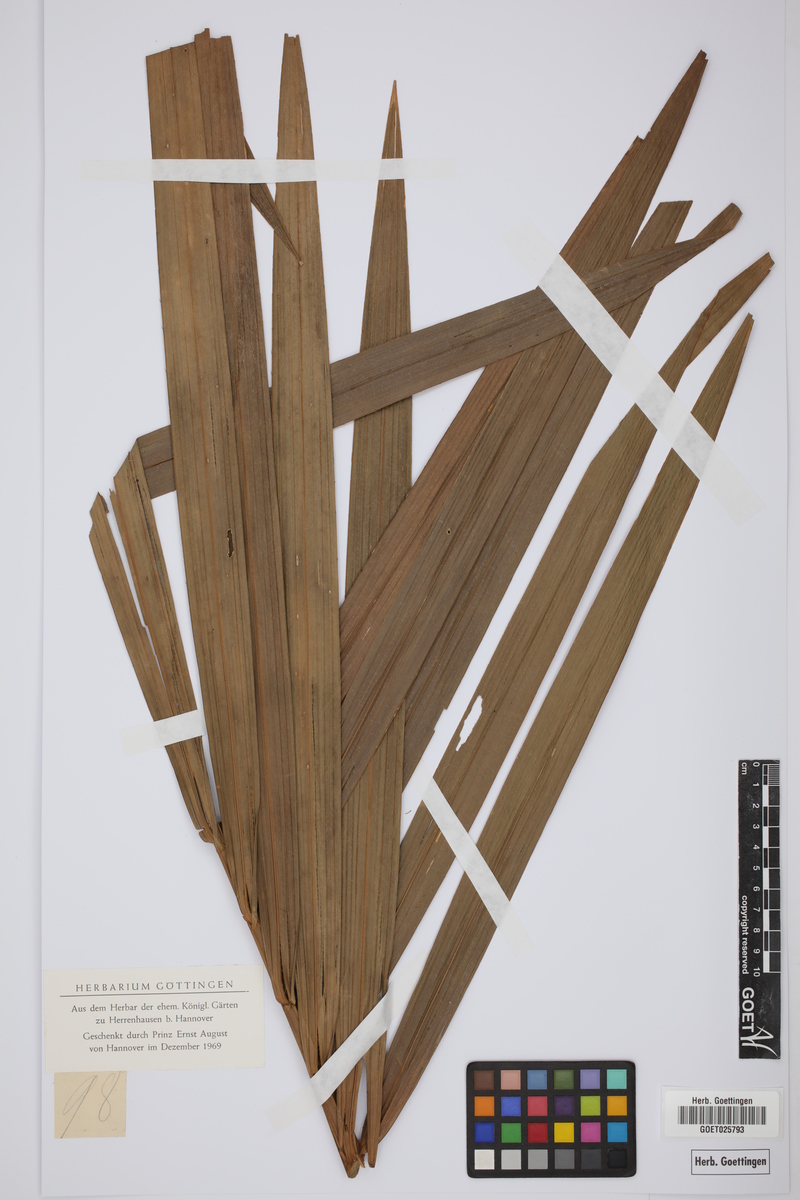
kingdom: Plantae
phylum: Tracheophyta
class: Liliopsida
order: Arecales
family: Arecaceae
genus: Raphia
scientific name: Raphia taedigera
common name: Pinecone palm
